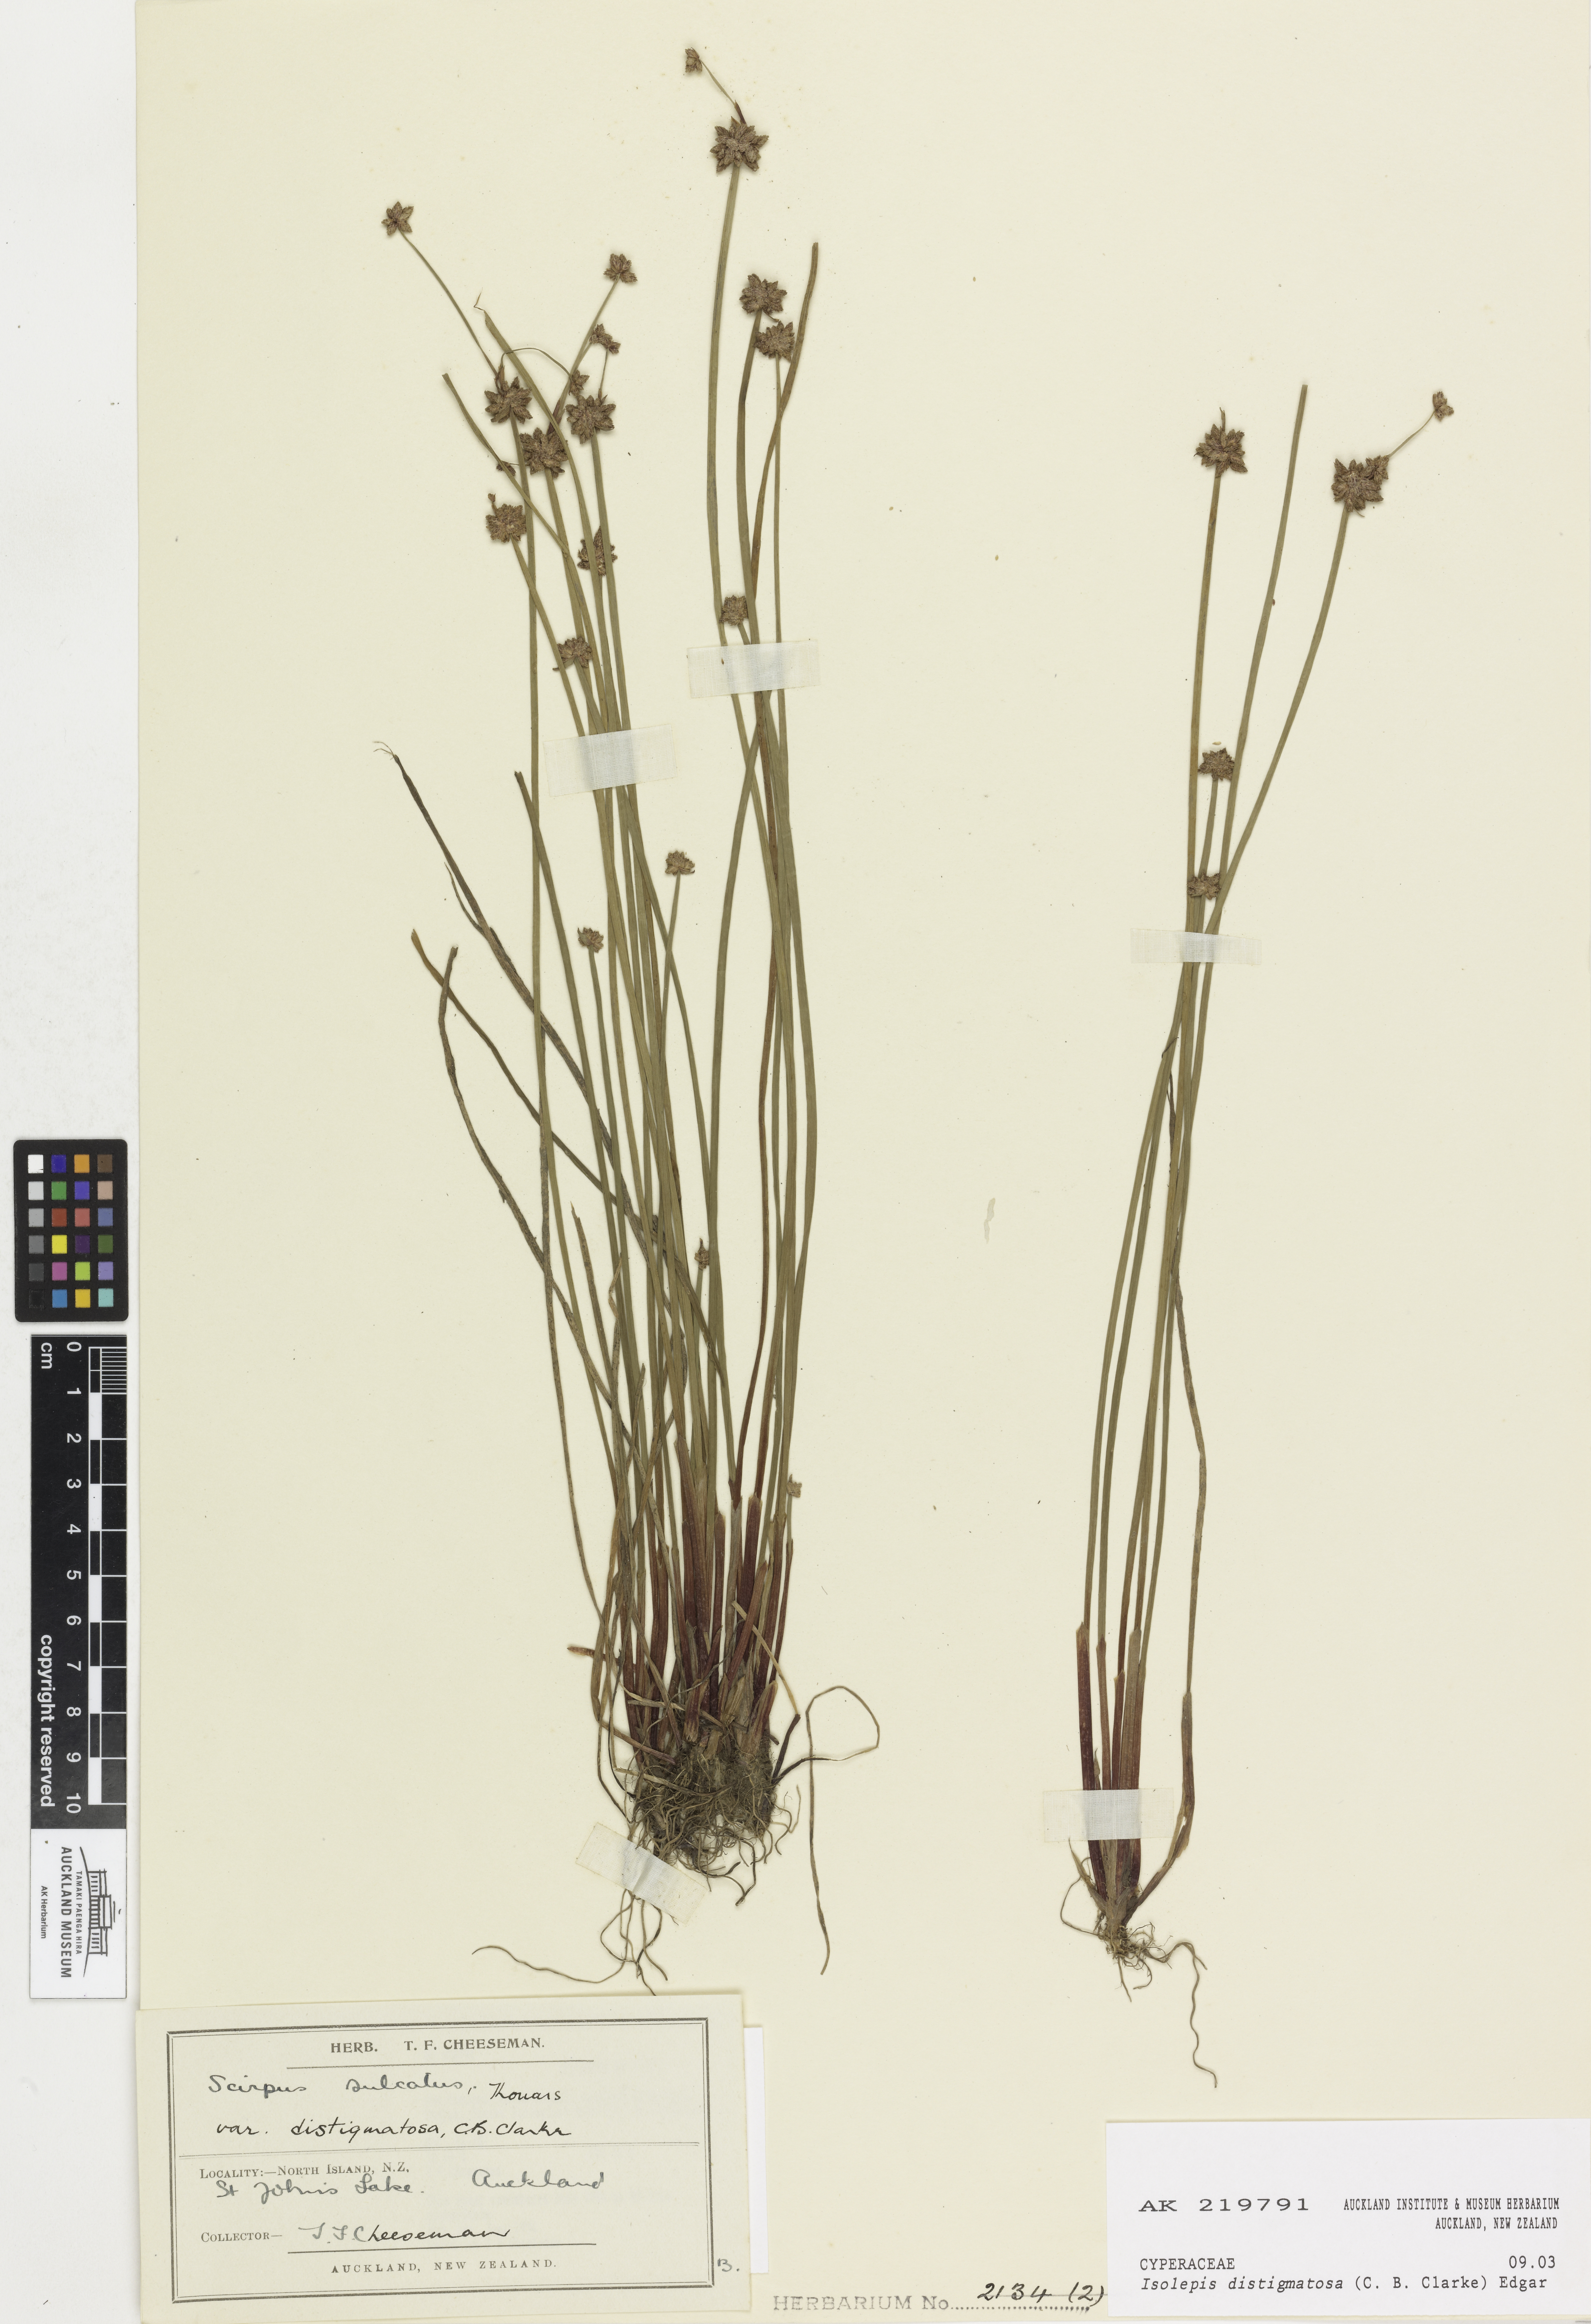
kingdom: Plantae
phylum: Tracheophyta
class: Liliopsida
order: Poales
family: Cyperaceae
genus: Isolepis
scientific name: Isolepis distigmatosa
